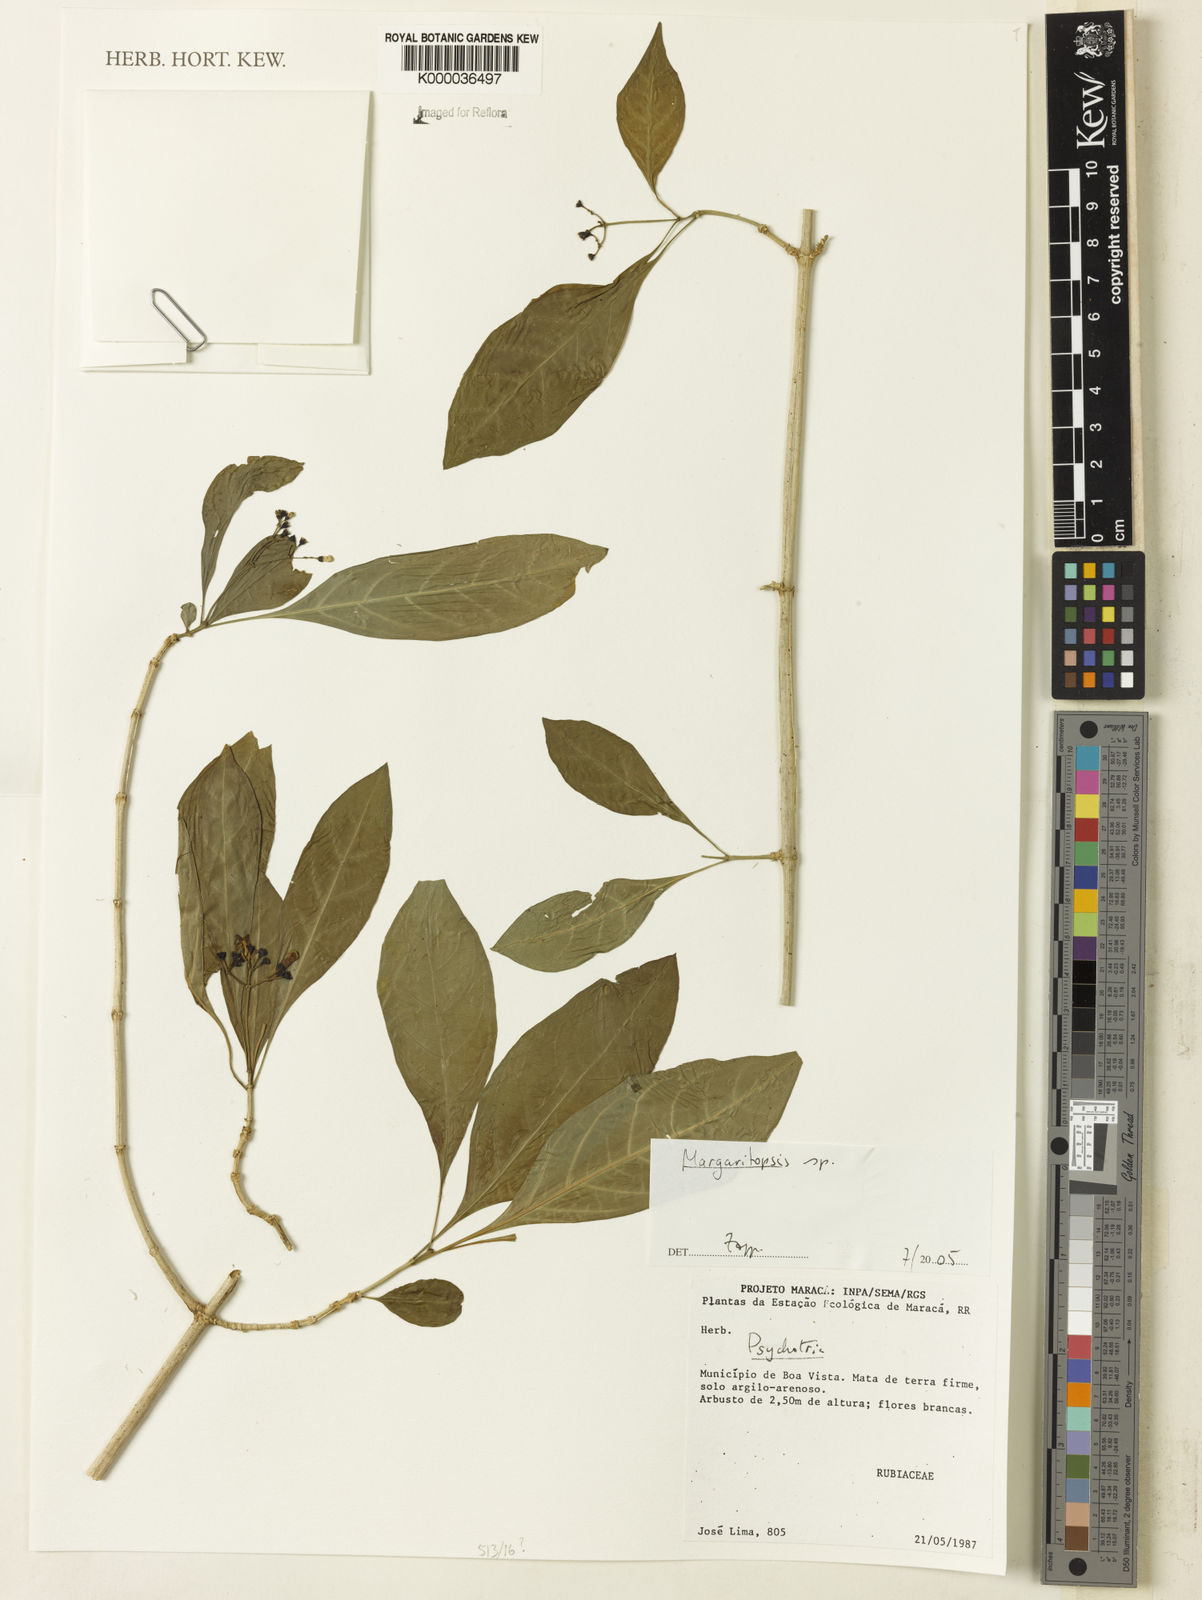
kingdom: Plantae
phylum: Tracheophyta
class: Magnoliopsida
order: Gentianales
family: Rubiaceae
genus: Eumachia
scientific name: Eumachia
